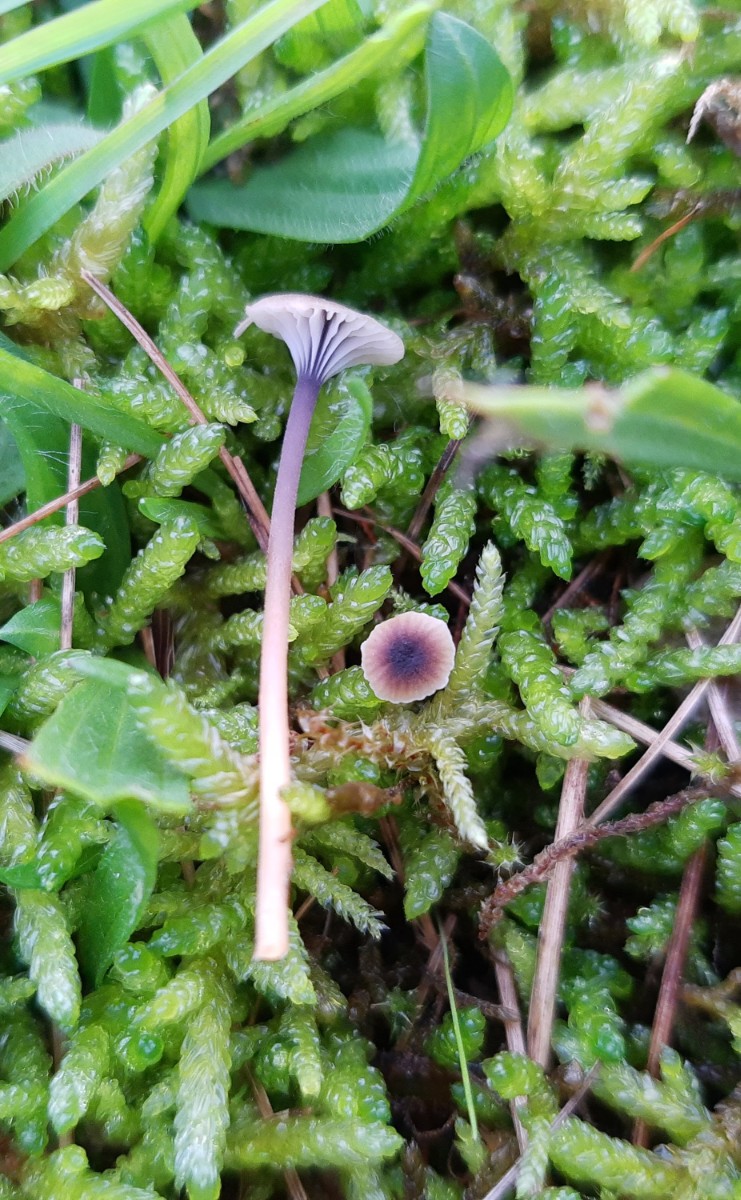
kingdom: Fungi
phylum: Basidiomycota
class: Agaricomycetes
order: Hymenochaetales
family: Rickenellaceae
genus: Rickenella
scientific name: Rickenella swartzii
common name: finstokket mosnavlehat
